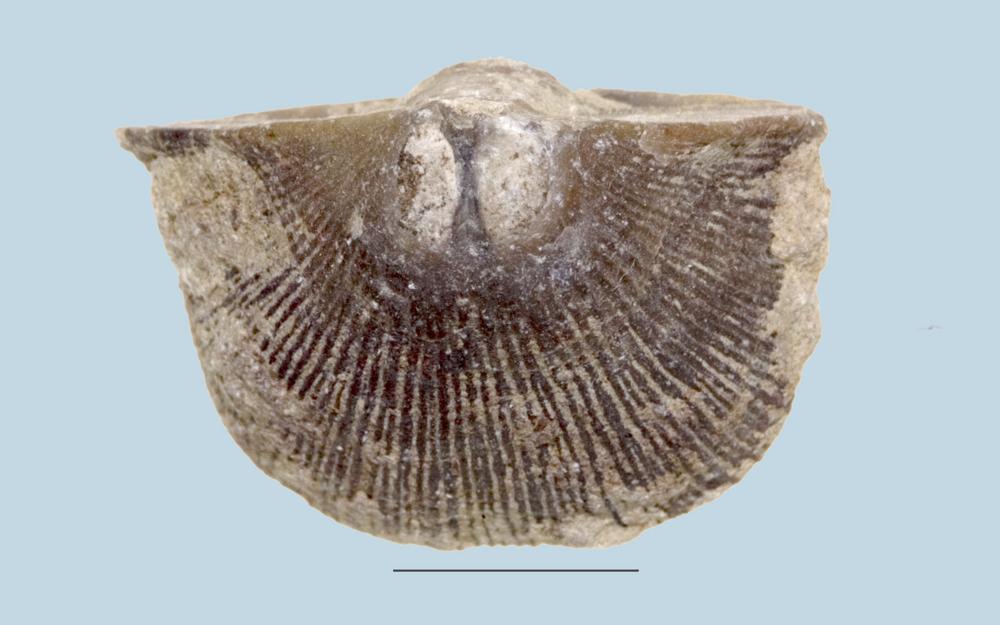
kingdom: Animalia
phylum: Brachiopoda
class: Rhynchonellata
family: Clitambonitidae
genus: Vellamo
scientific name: Vellamo Orthis verneuili
